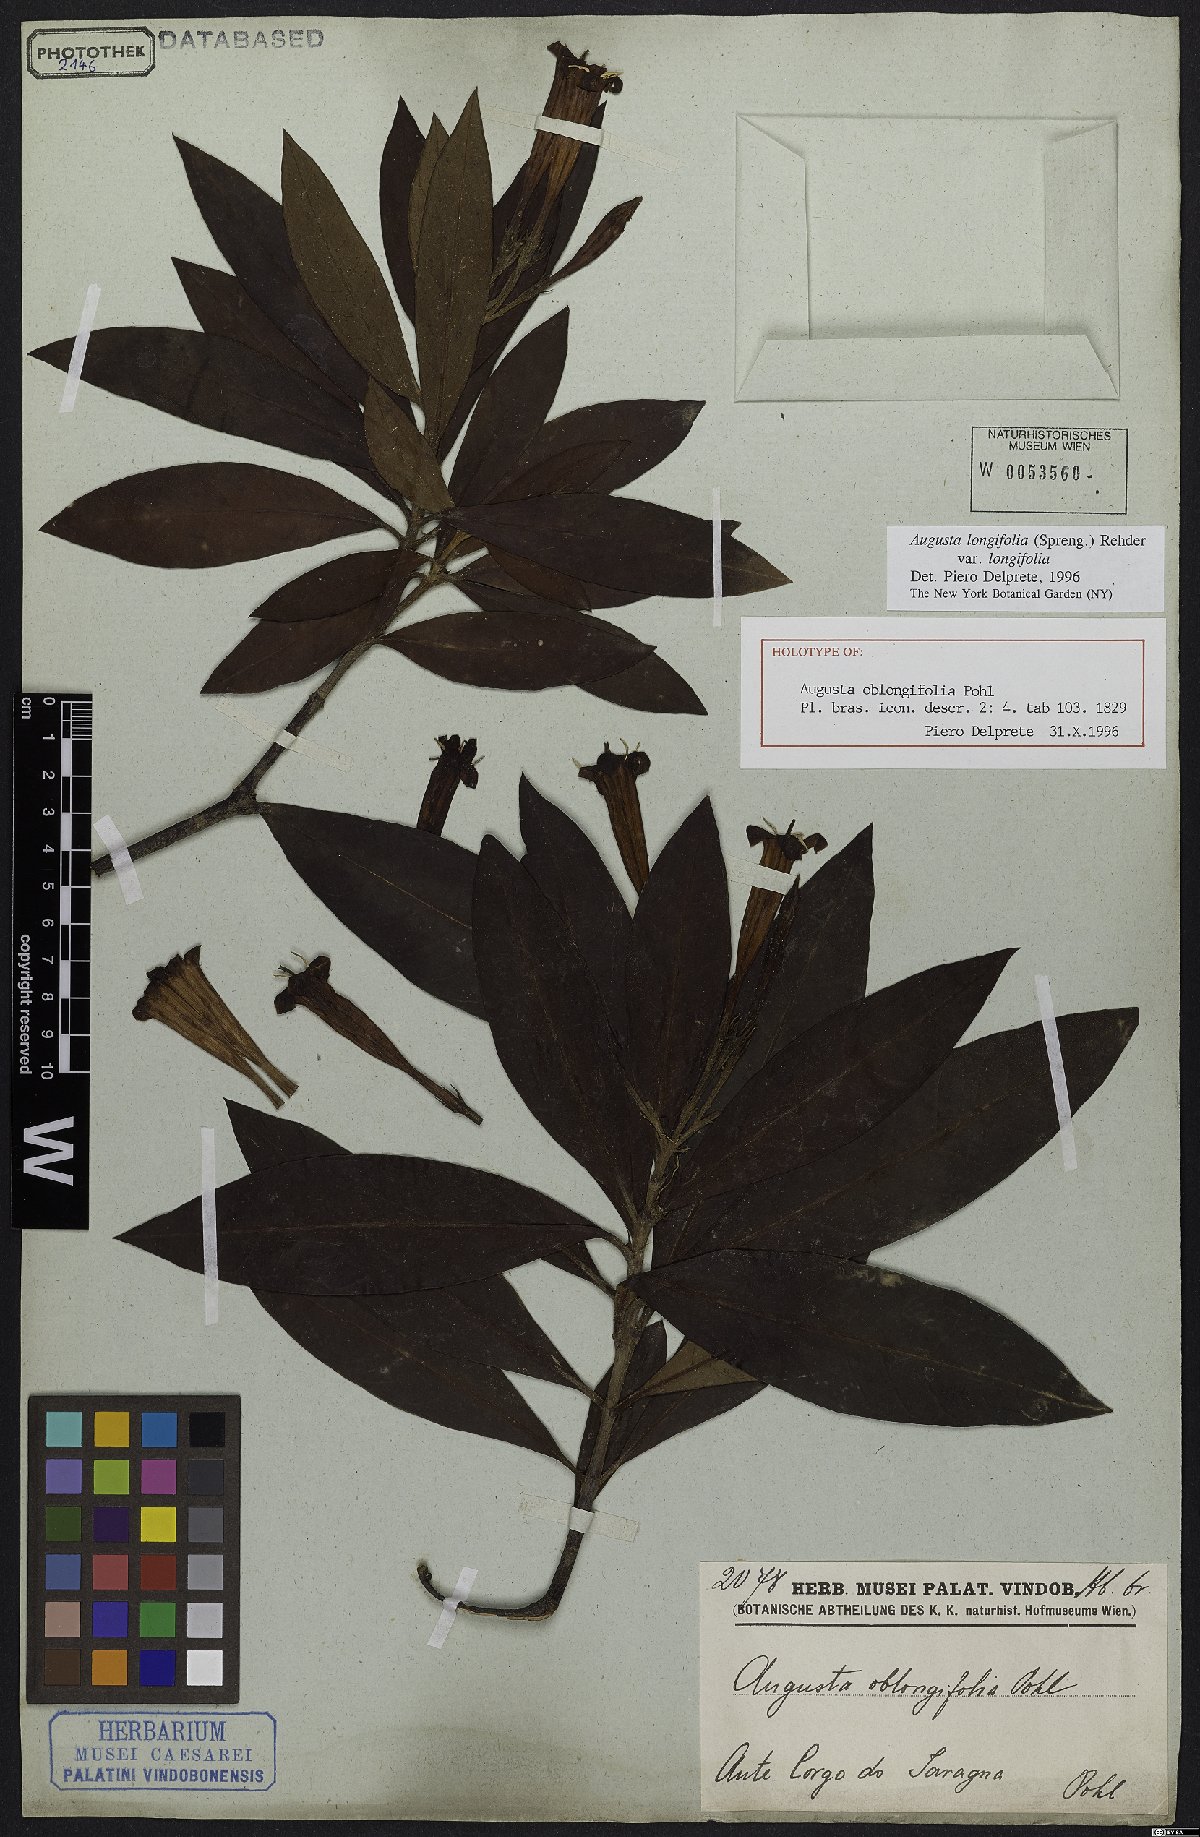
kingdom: Plantae
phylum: Tracheophyta
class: Magnoliopsida
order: Gentianales
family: Rubiaceae
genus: Augusta
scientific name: Augusta longifolia
